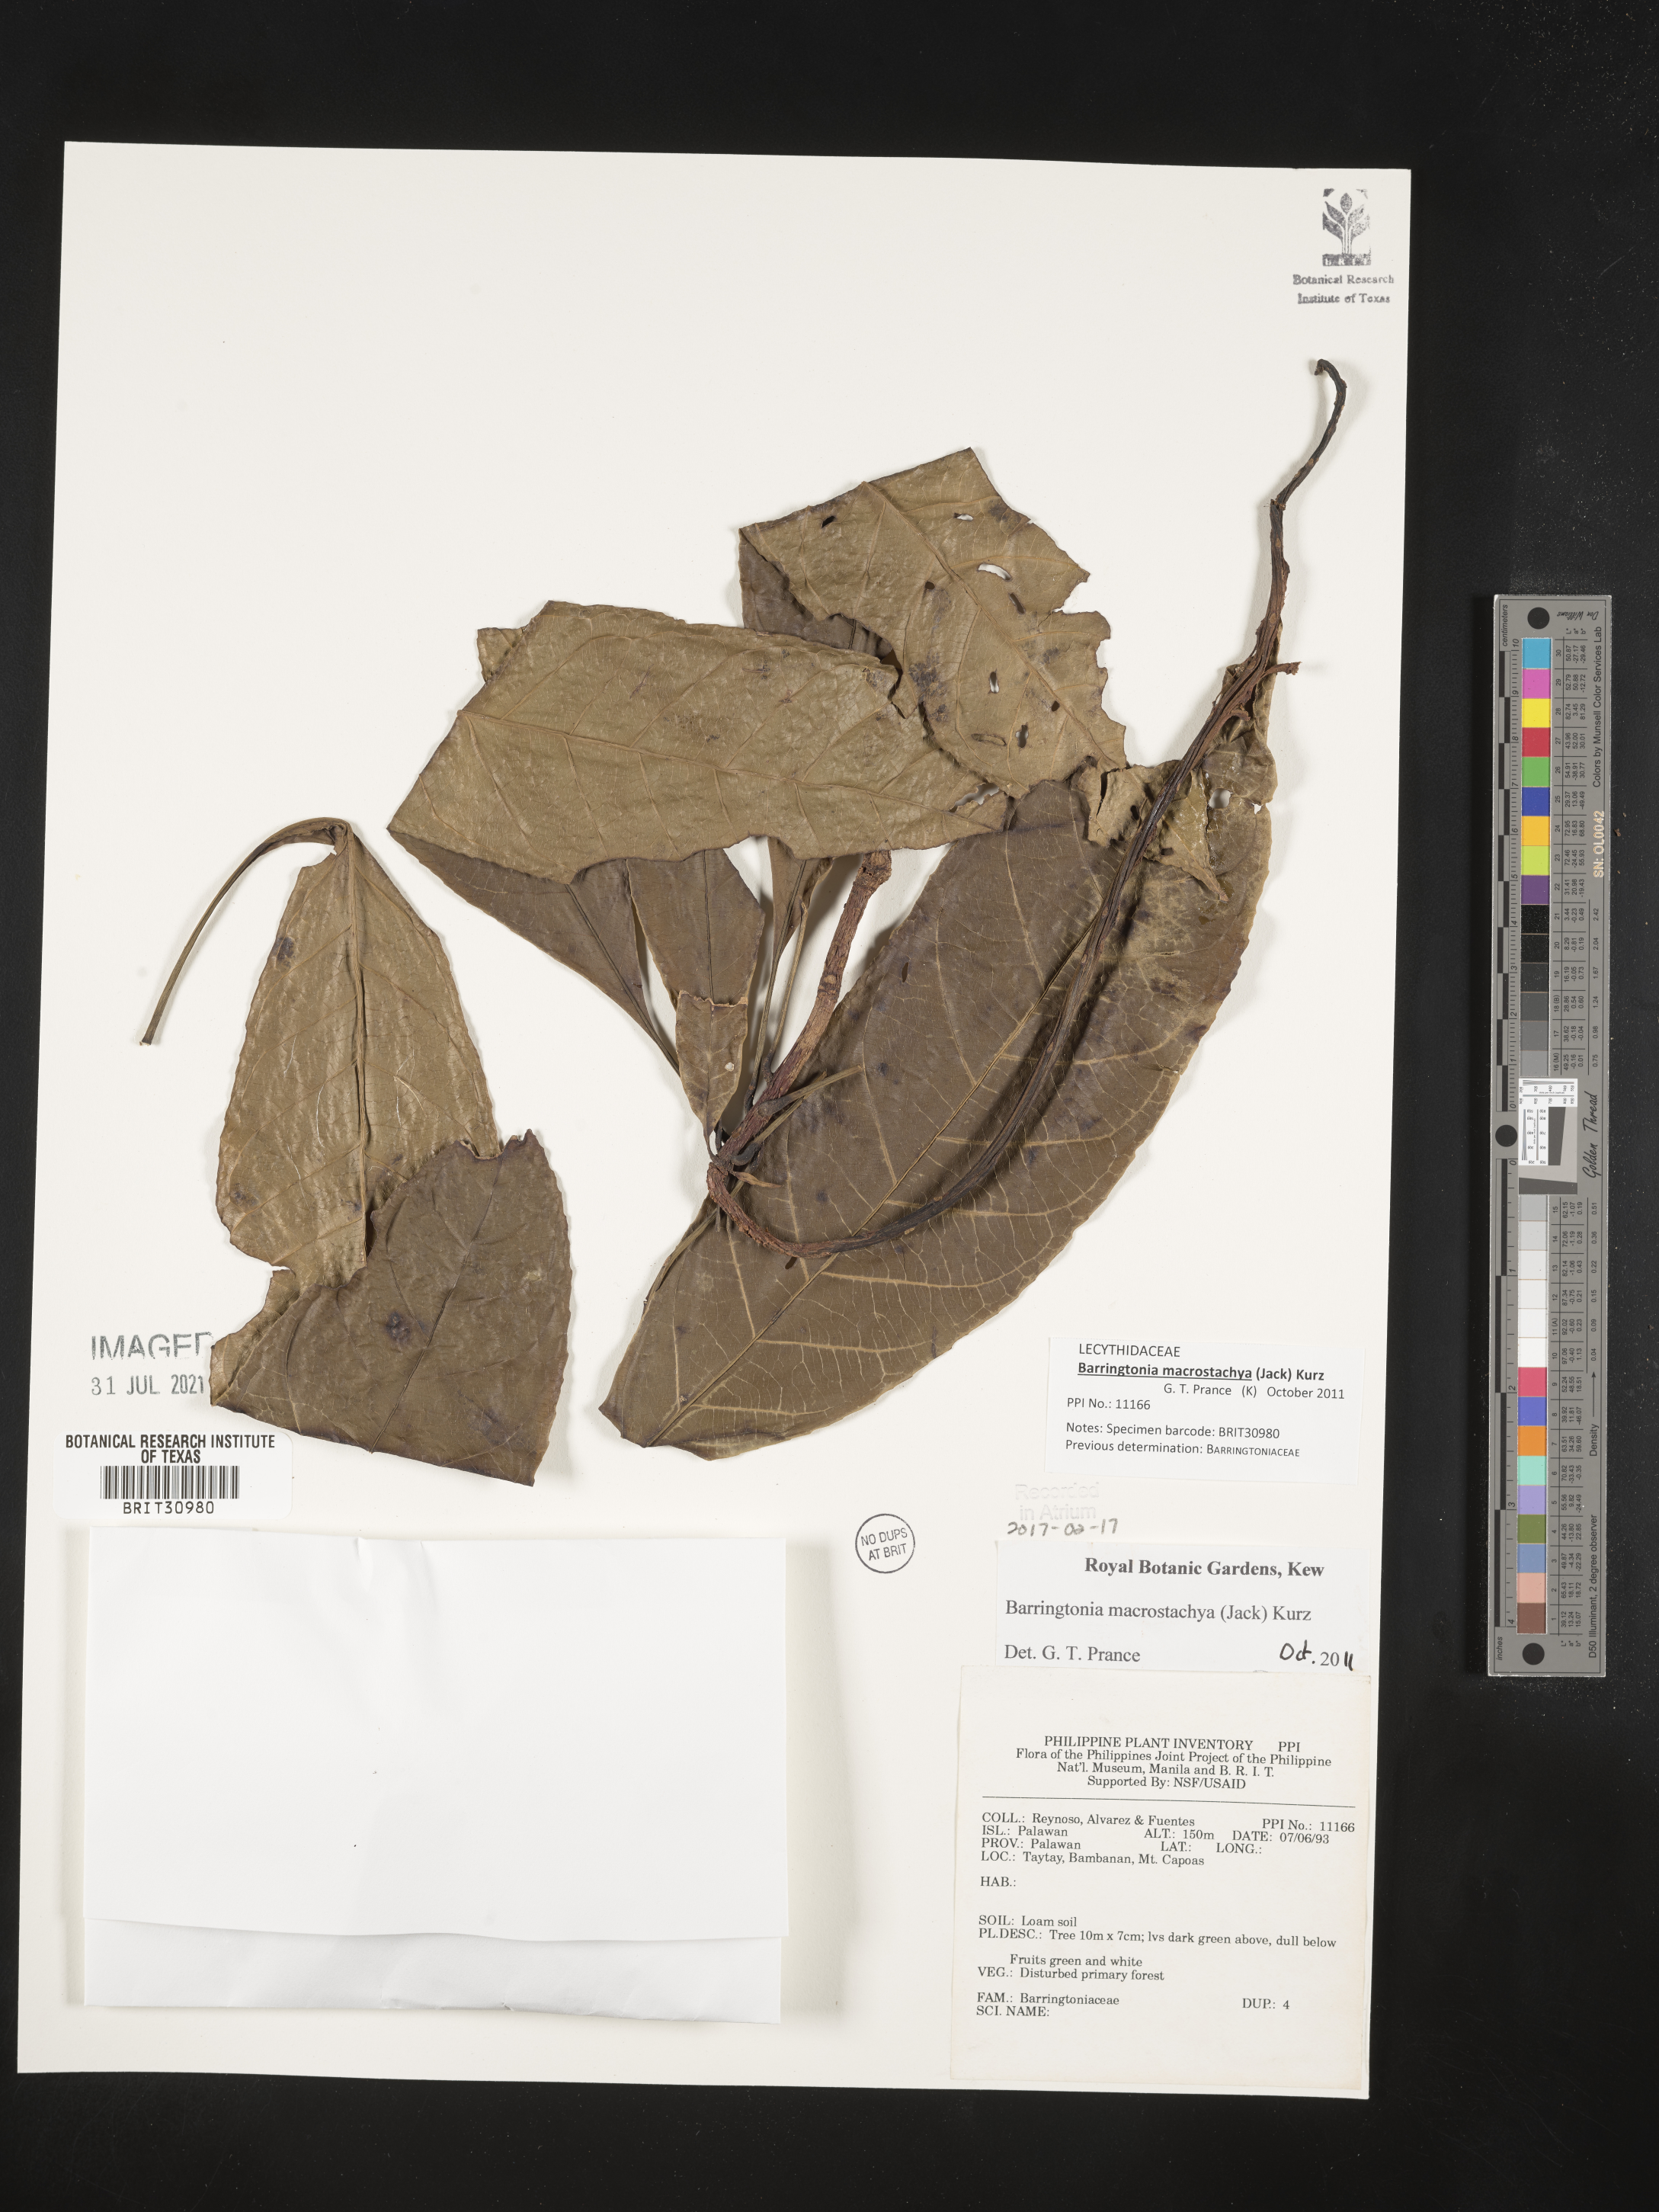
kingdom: Plantae
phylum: Tracheophyta
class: Magnoliopsida
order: Ericales
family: Lecythidaceae
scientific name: Lecythidaceae
